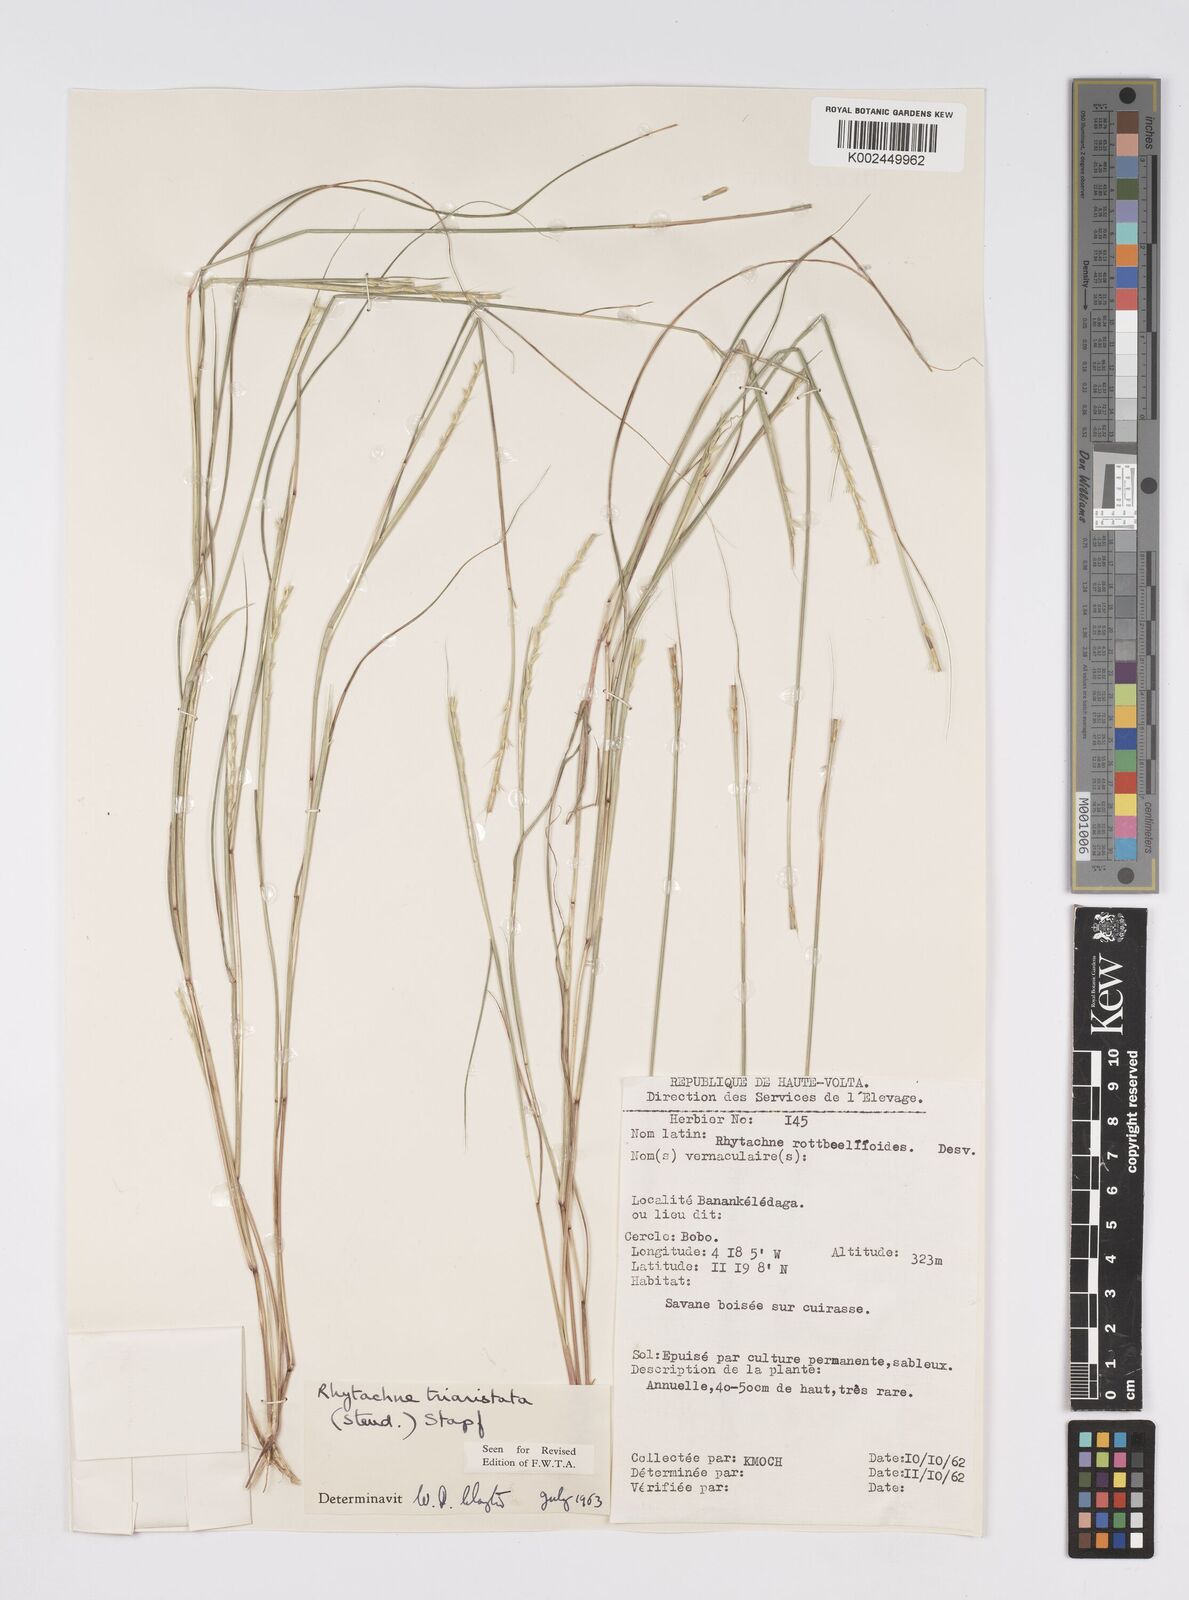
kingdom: Plantae
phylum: Tracheophyta
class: Liliopsida
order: Poales
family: Poaceae
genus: Rhytachne
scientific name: Rhytachne triaristata
